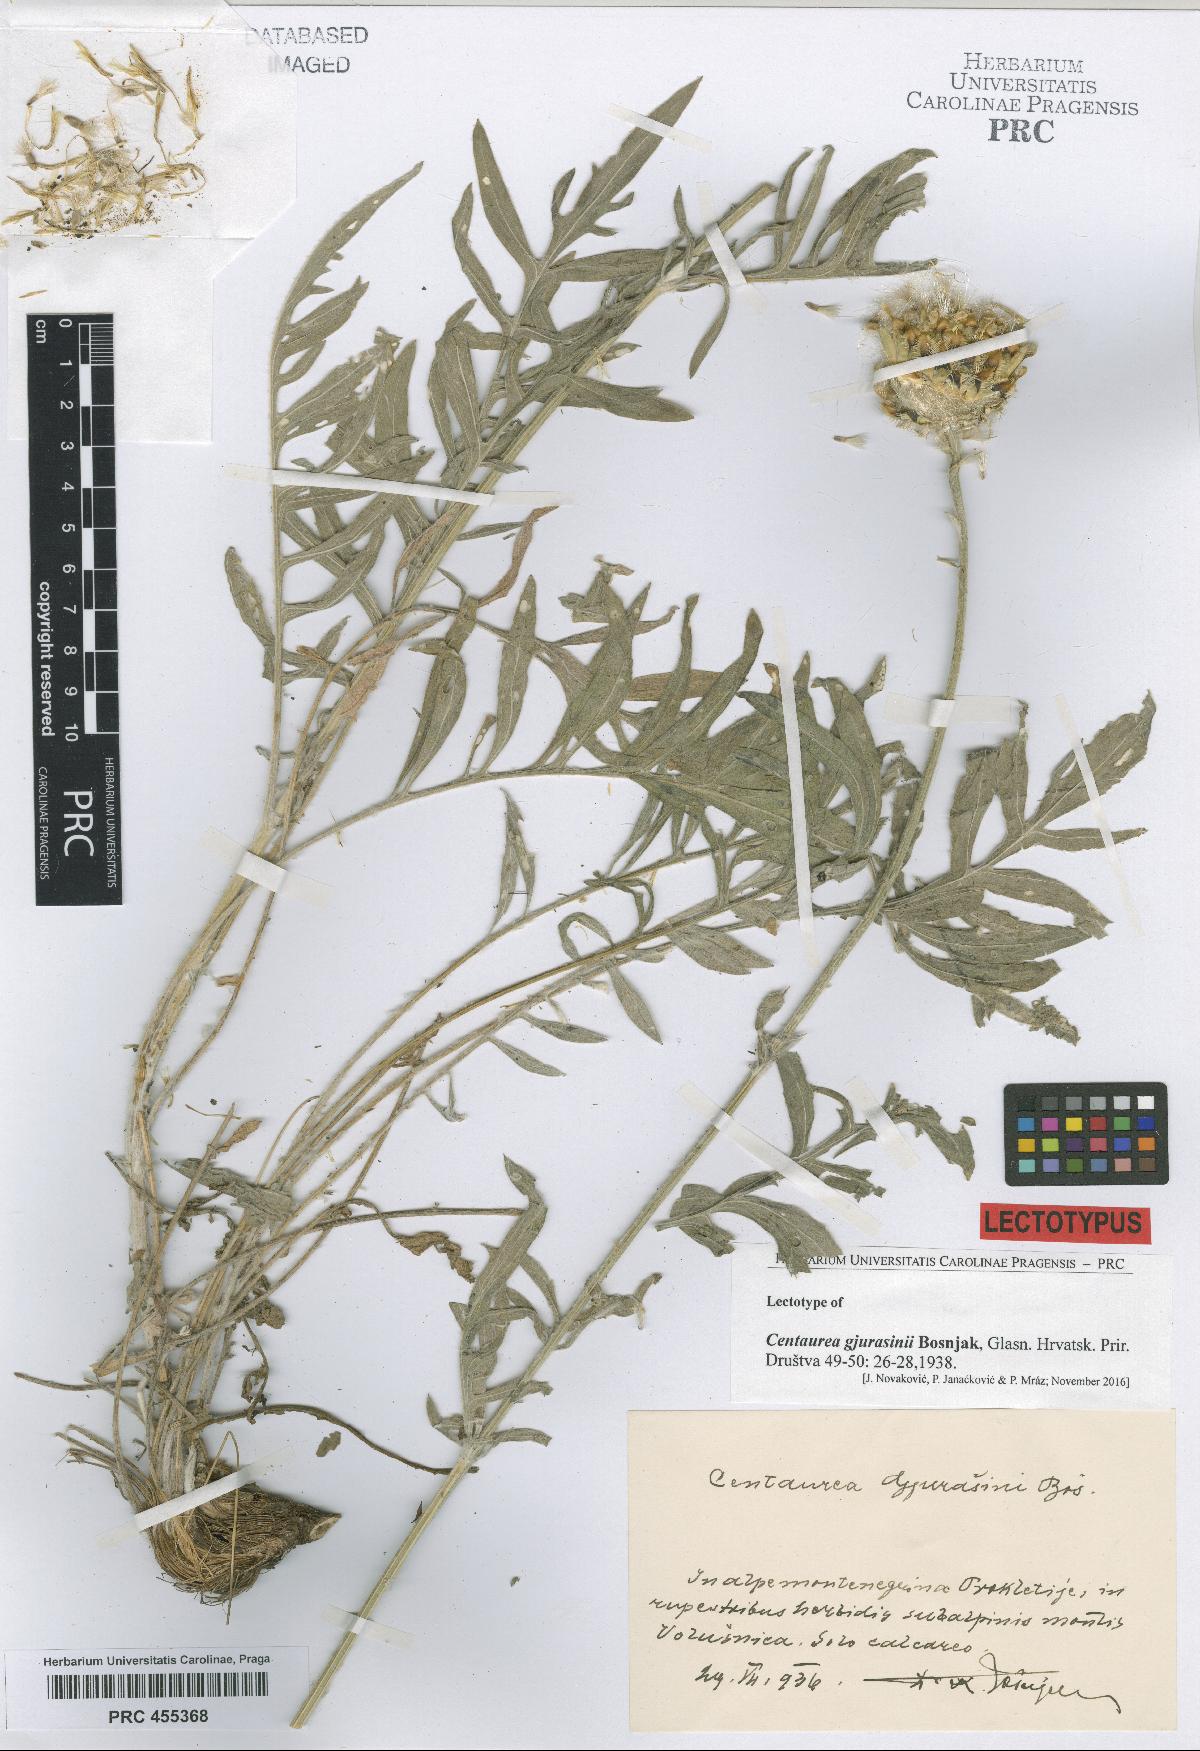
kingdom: Plantae
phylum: Tracheophyta
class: Magnoliopsida
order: Asterales
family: Asteraceae
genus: Centaurea
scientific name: Centaurea gjurasinii
